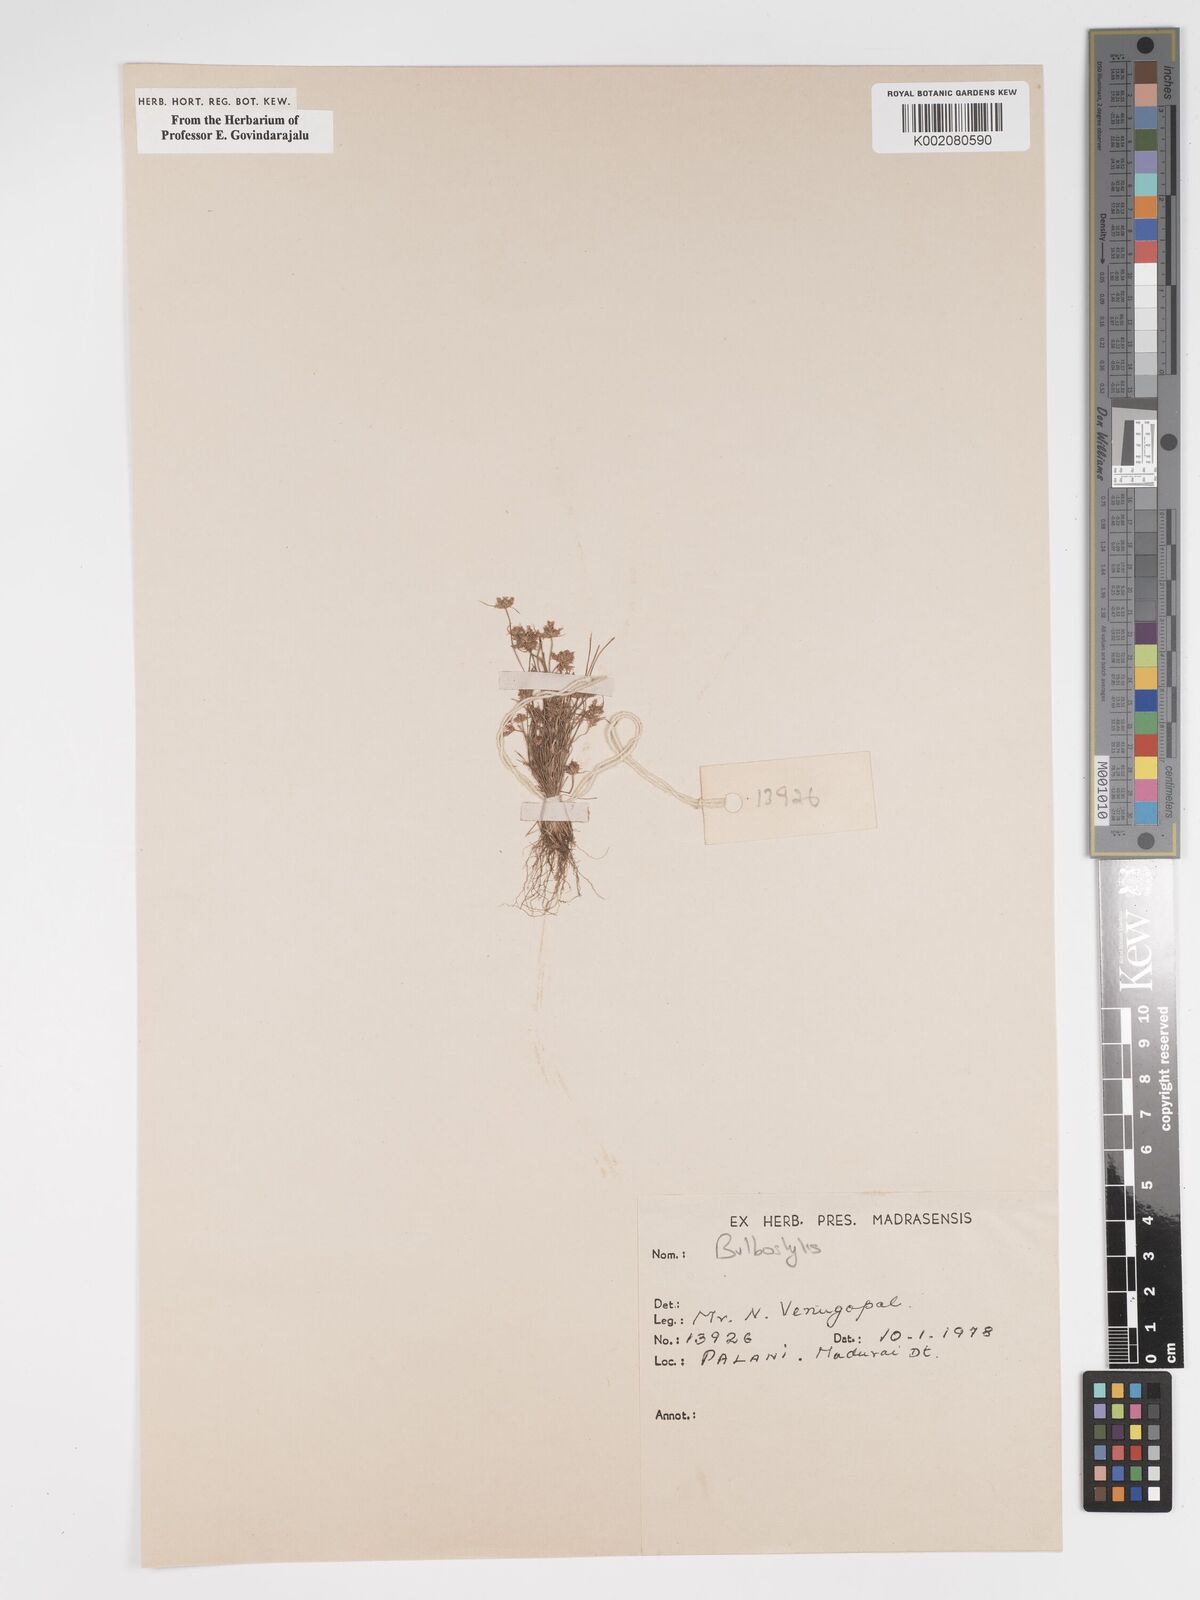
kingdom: Plantae
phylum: Tracheophyta
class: Liliopsida
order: Poales
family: Cyperaceae
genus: Bulbostylis
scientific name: Bulbostylis
